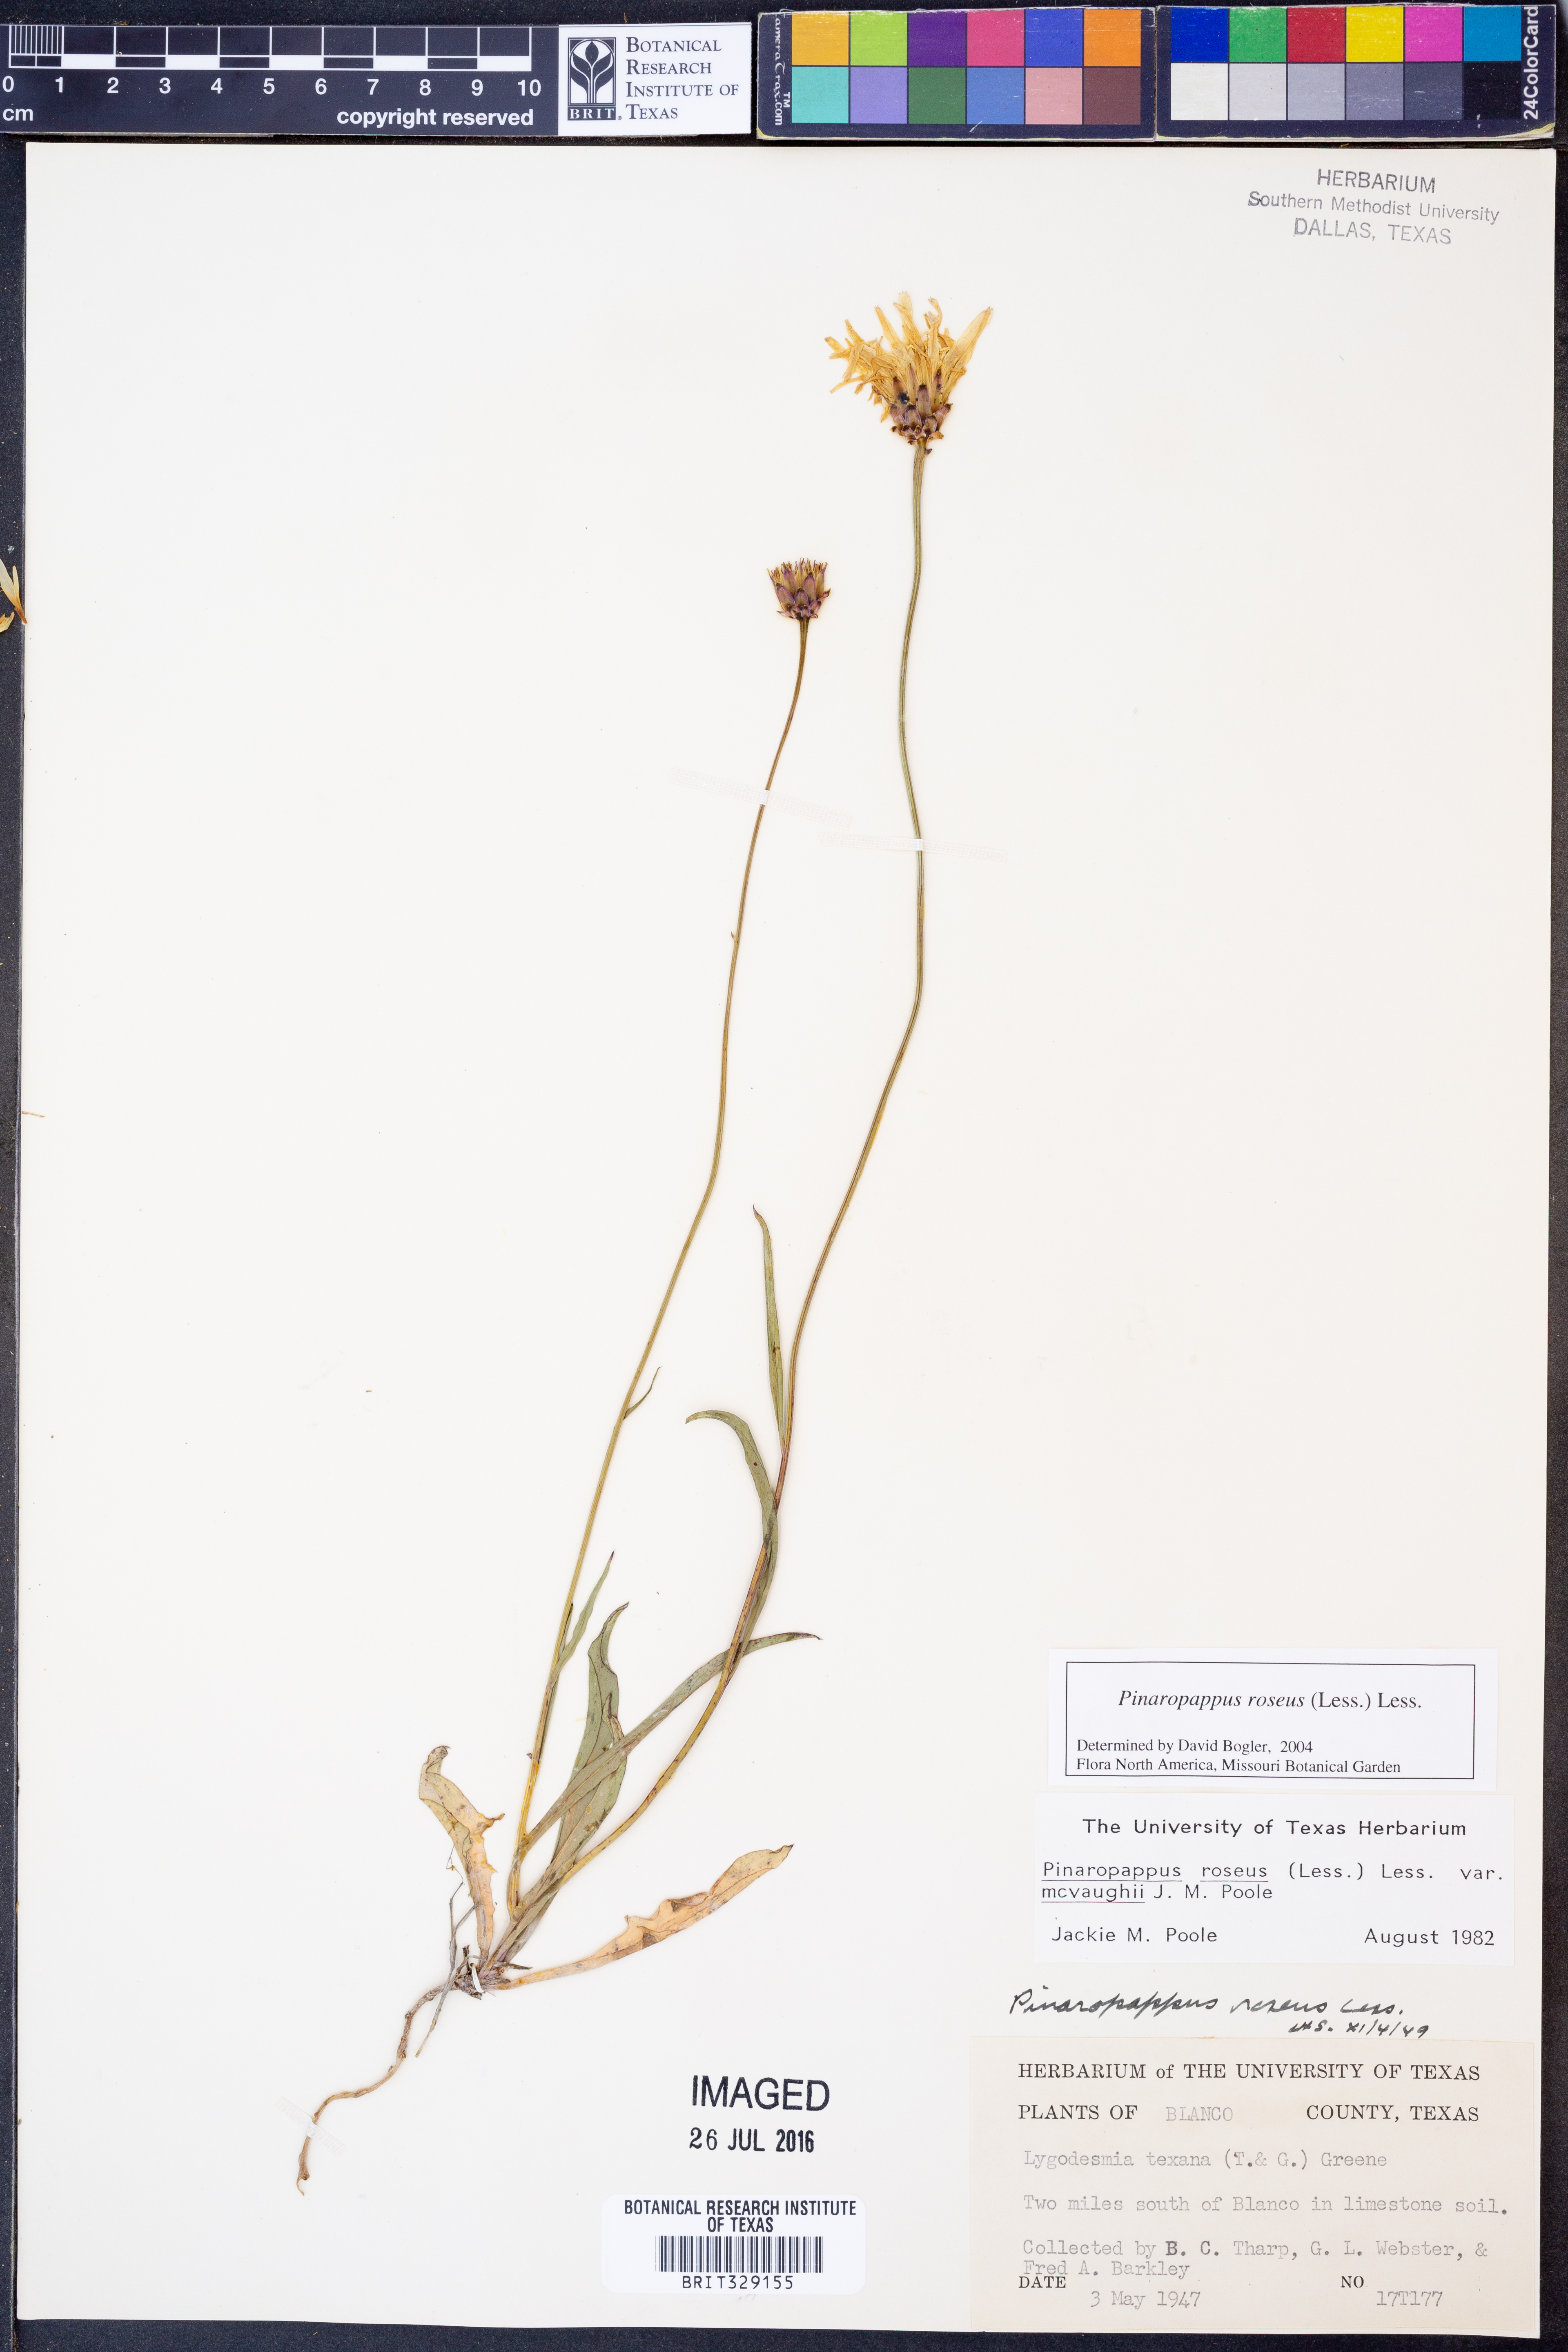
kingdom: Plantae
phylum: Tracheophyta
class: Magnoliopsida
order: Asterales
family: Asteraceae
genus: Pinaropappus
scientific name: Pinaropappus roseus
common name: Rock-lettuce
